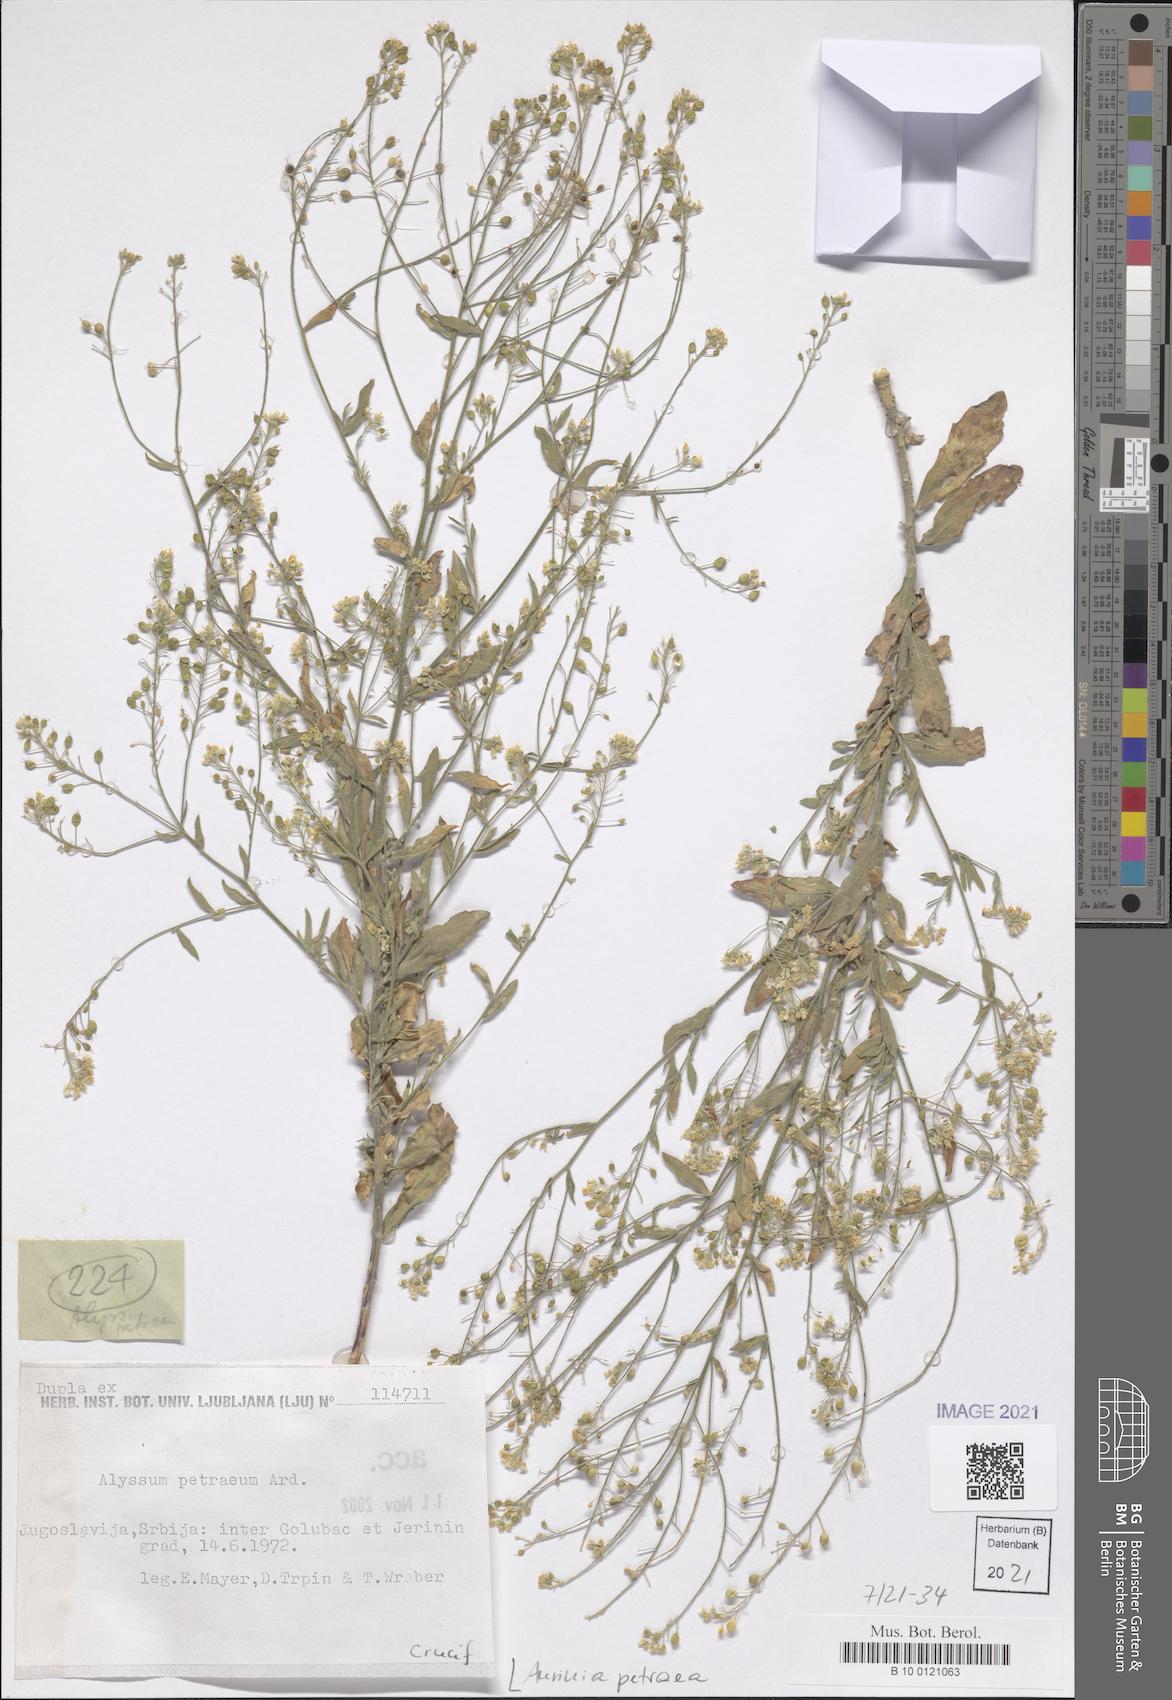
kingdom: Plantae
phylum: Tracheophyta
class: Magnoliopsida
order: Brassicales
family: Brassicaceae
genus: Aurinia
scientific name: Aurinia petraea
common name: Goldentuft
